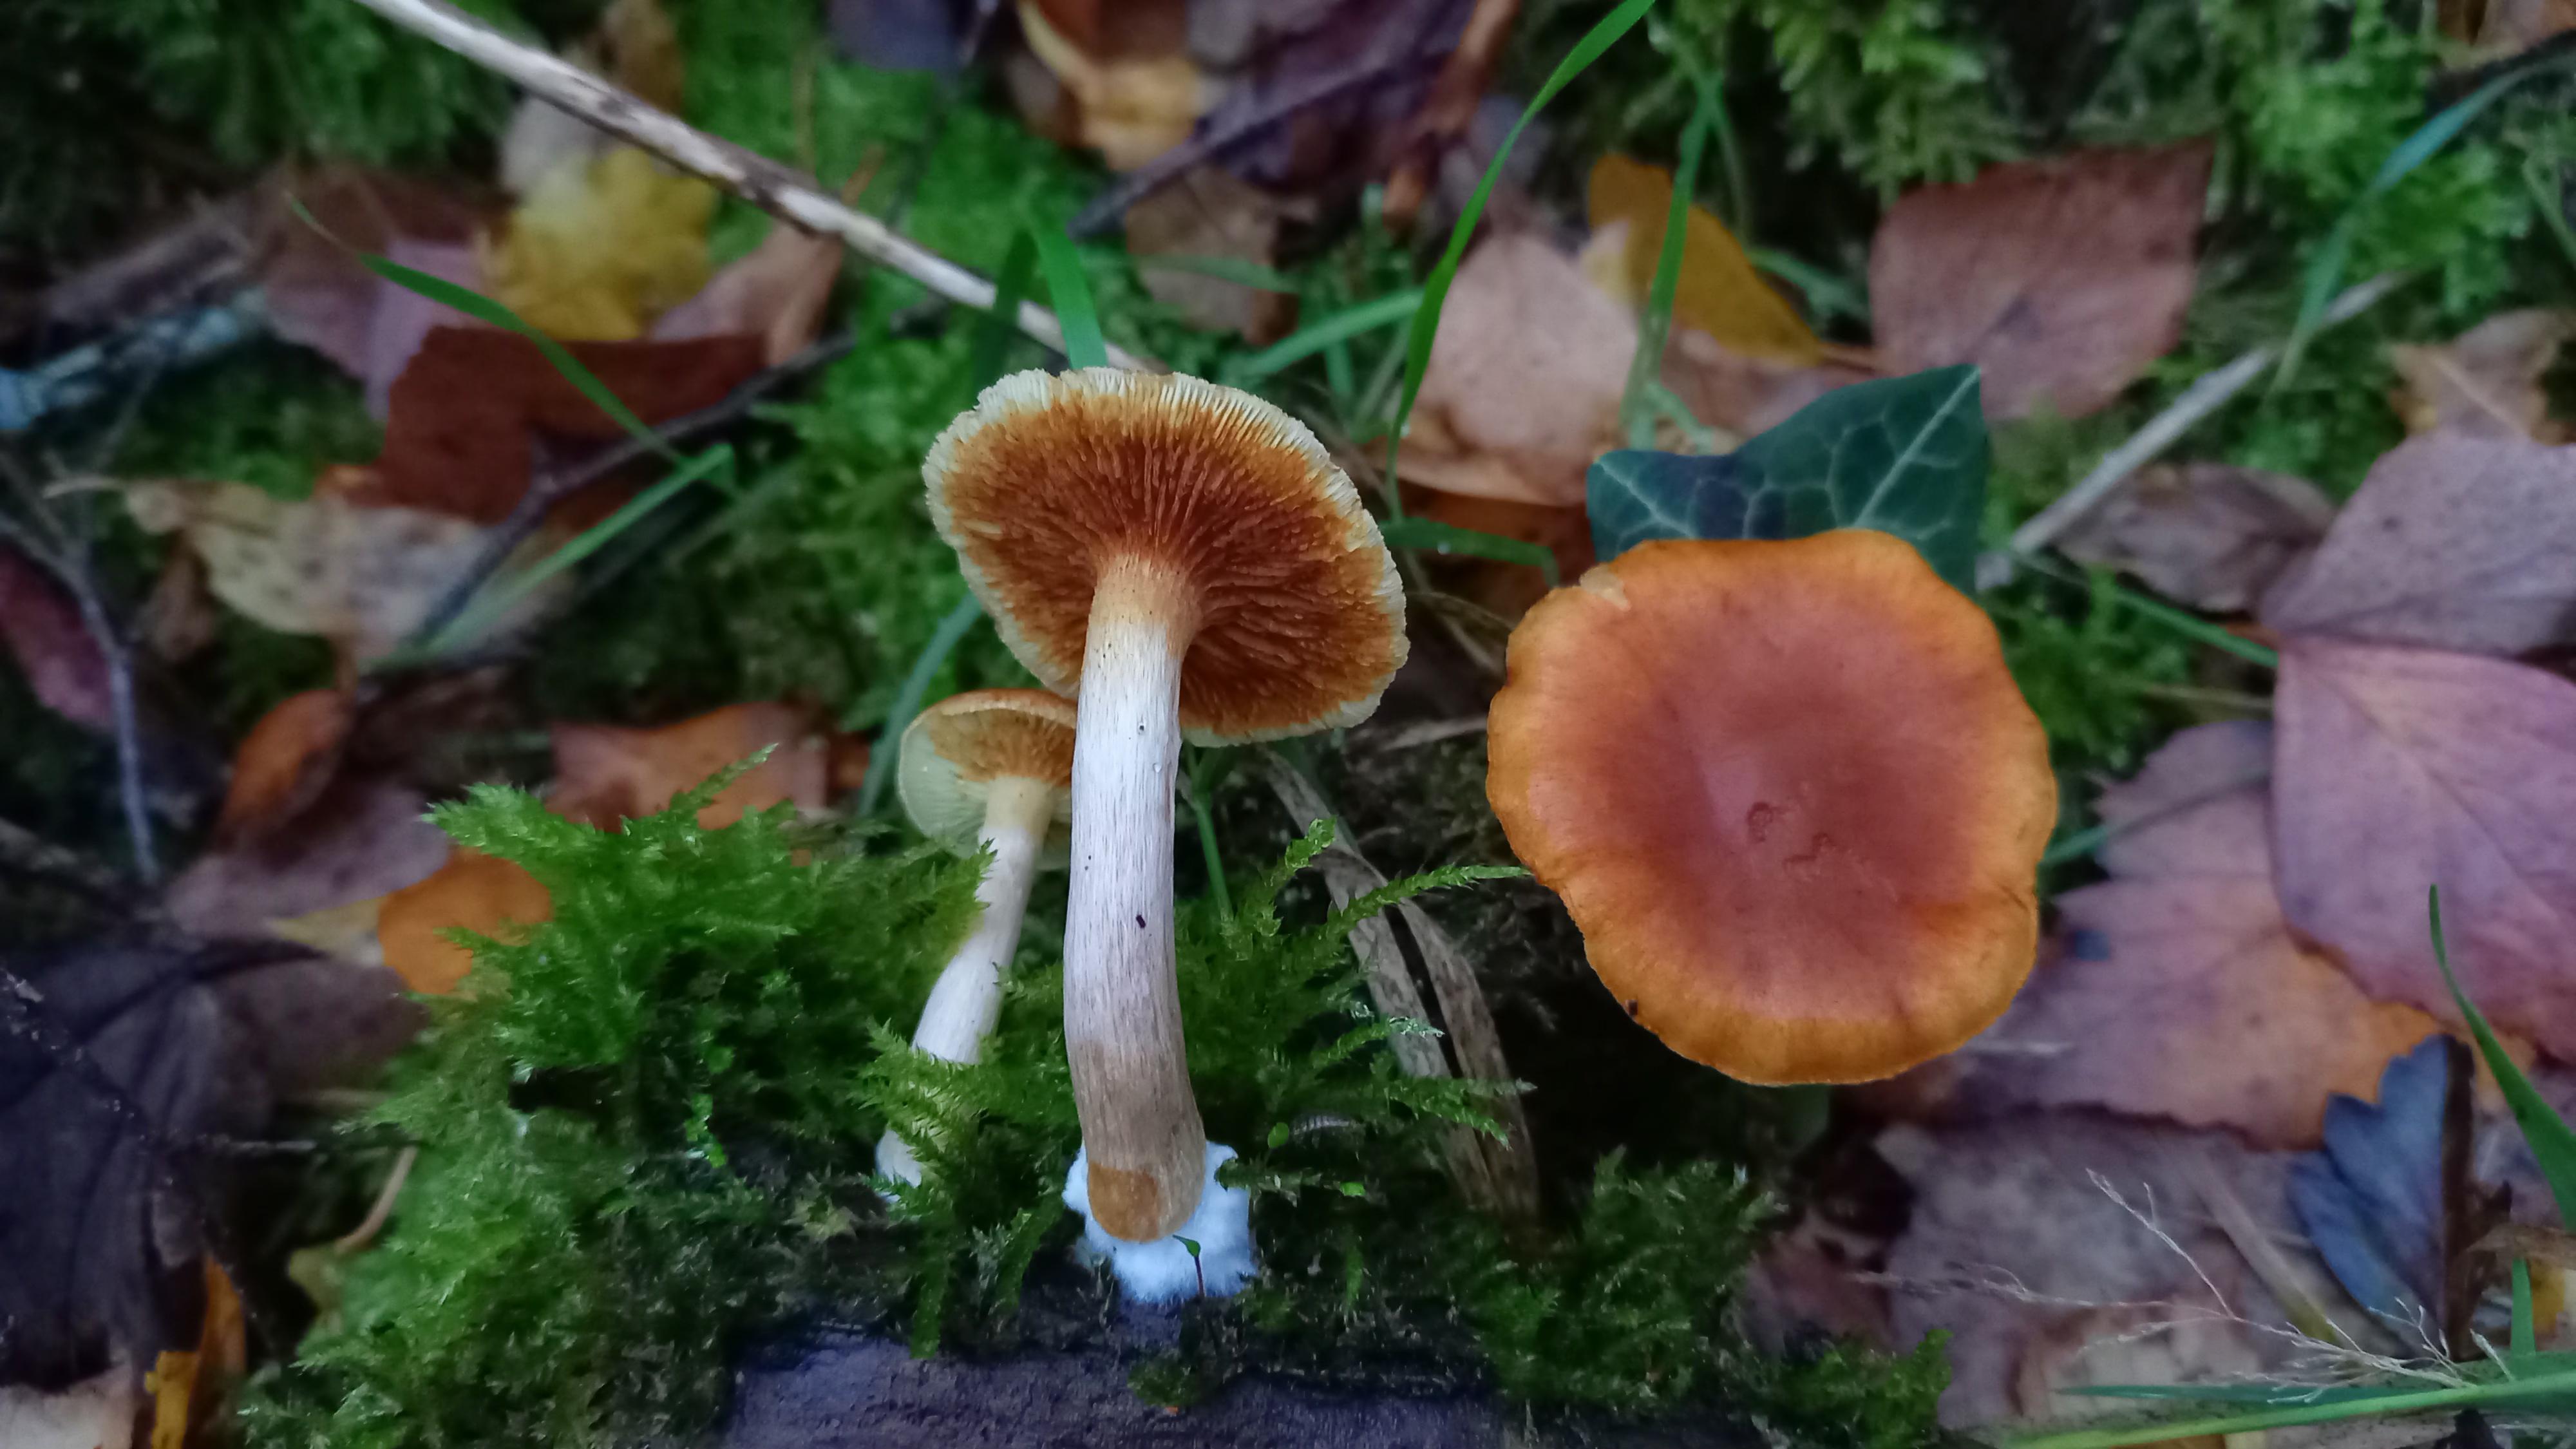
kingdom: Fungi
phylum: Basidiomycota
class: Agaricomycetes
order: Agaricales
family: Hymenogastraceae
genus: Gymnopilus
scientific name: Gymnopilus penetrans
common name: plettet flammehat
